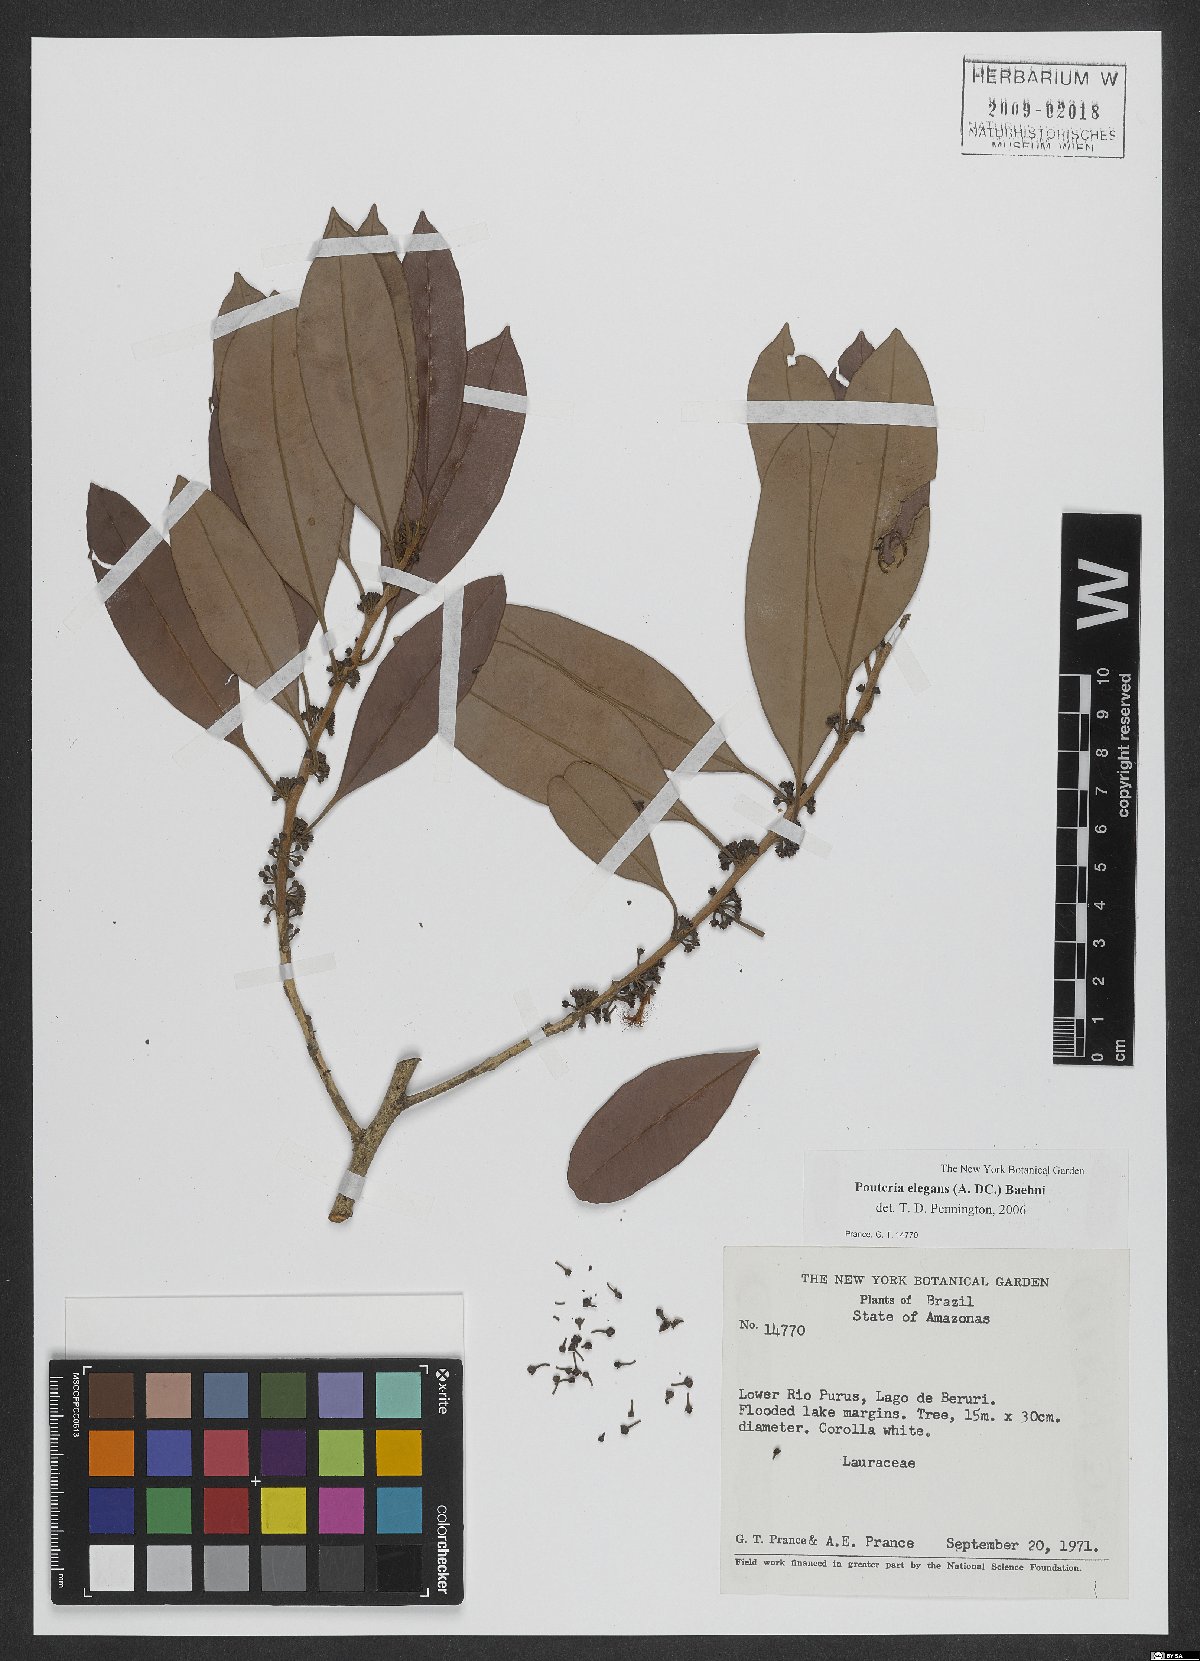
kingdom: Plantae
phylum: Tracheophyta
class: Magnoliopsida
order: Ericales
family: Sapotaceae
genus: Pouteria
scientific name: Pouteria elegans
